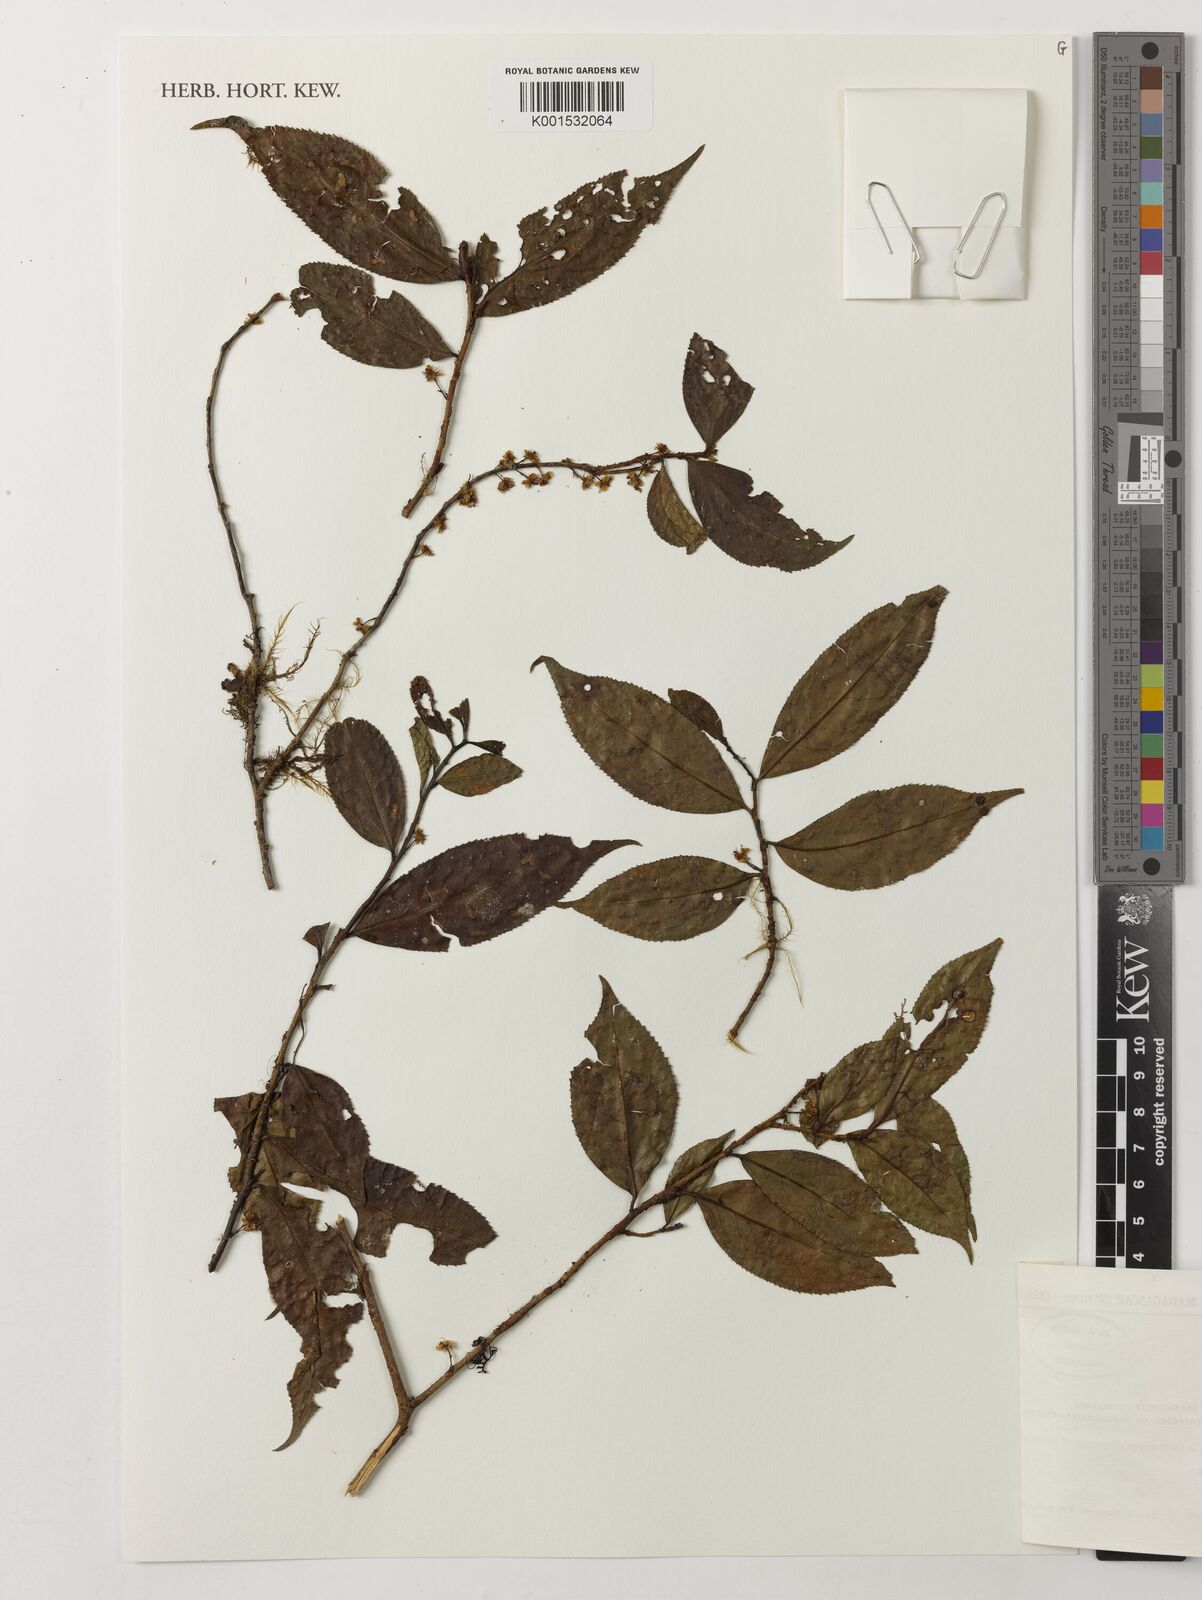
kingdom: Plantae
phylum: Tracheophyta
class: Magnoliopsida
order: Crossosomatales
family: Aphloiaceae
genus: Aphloia
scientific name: Aphloia
